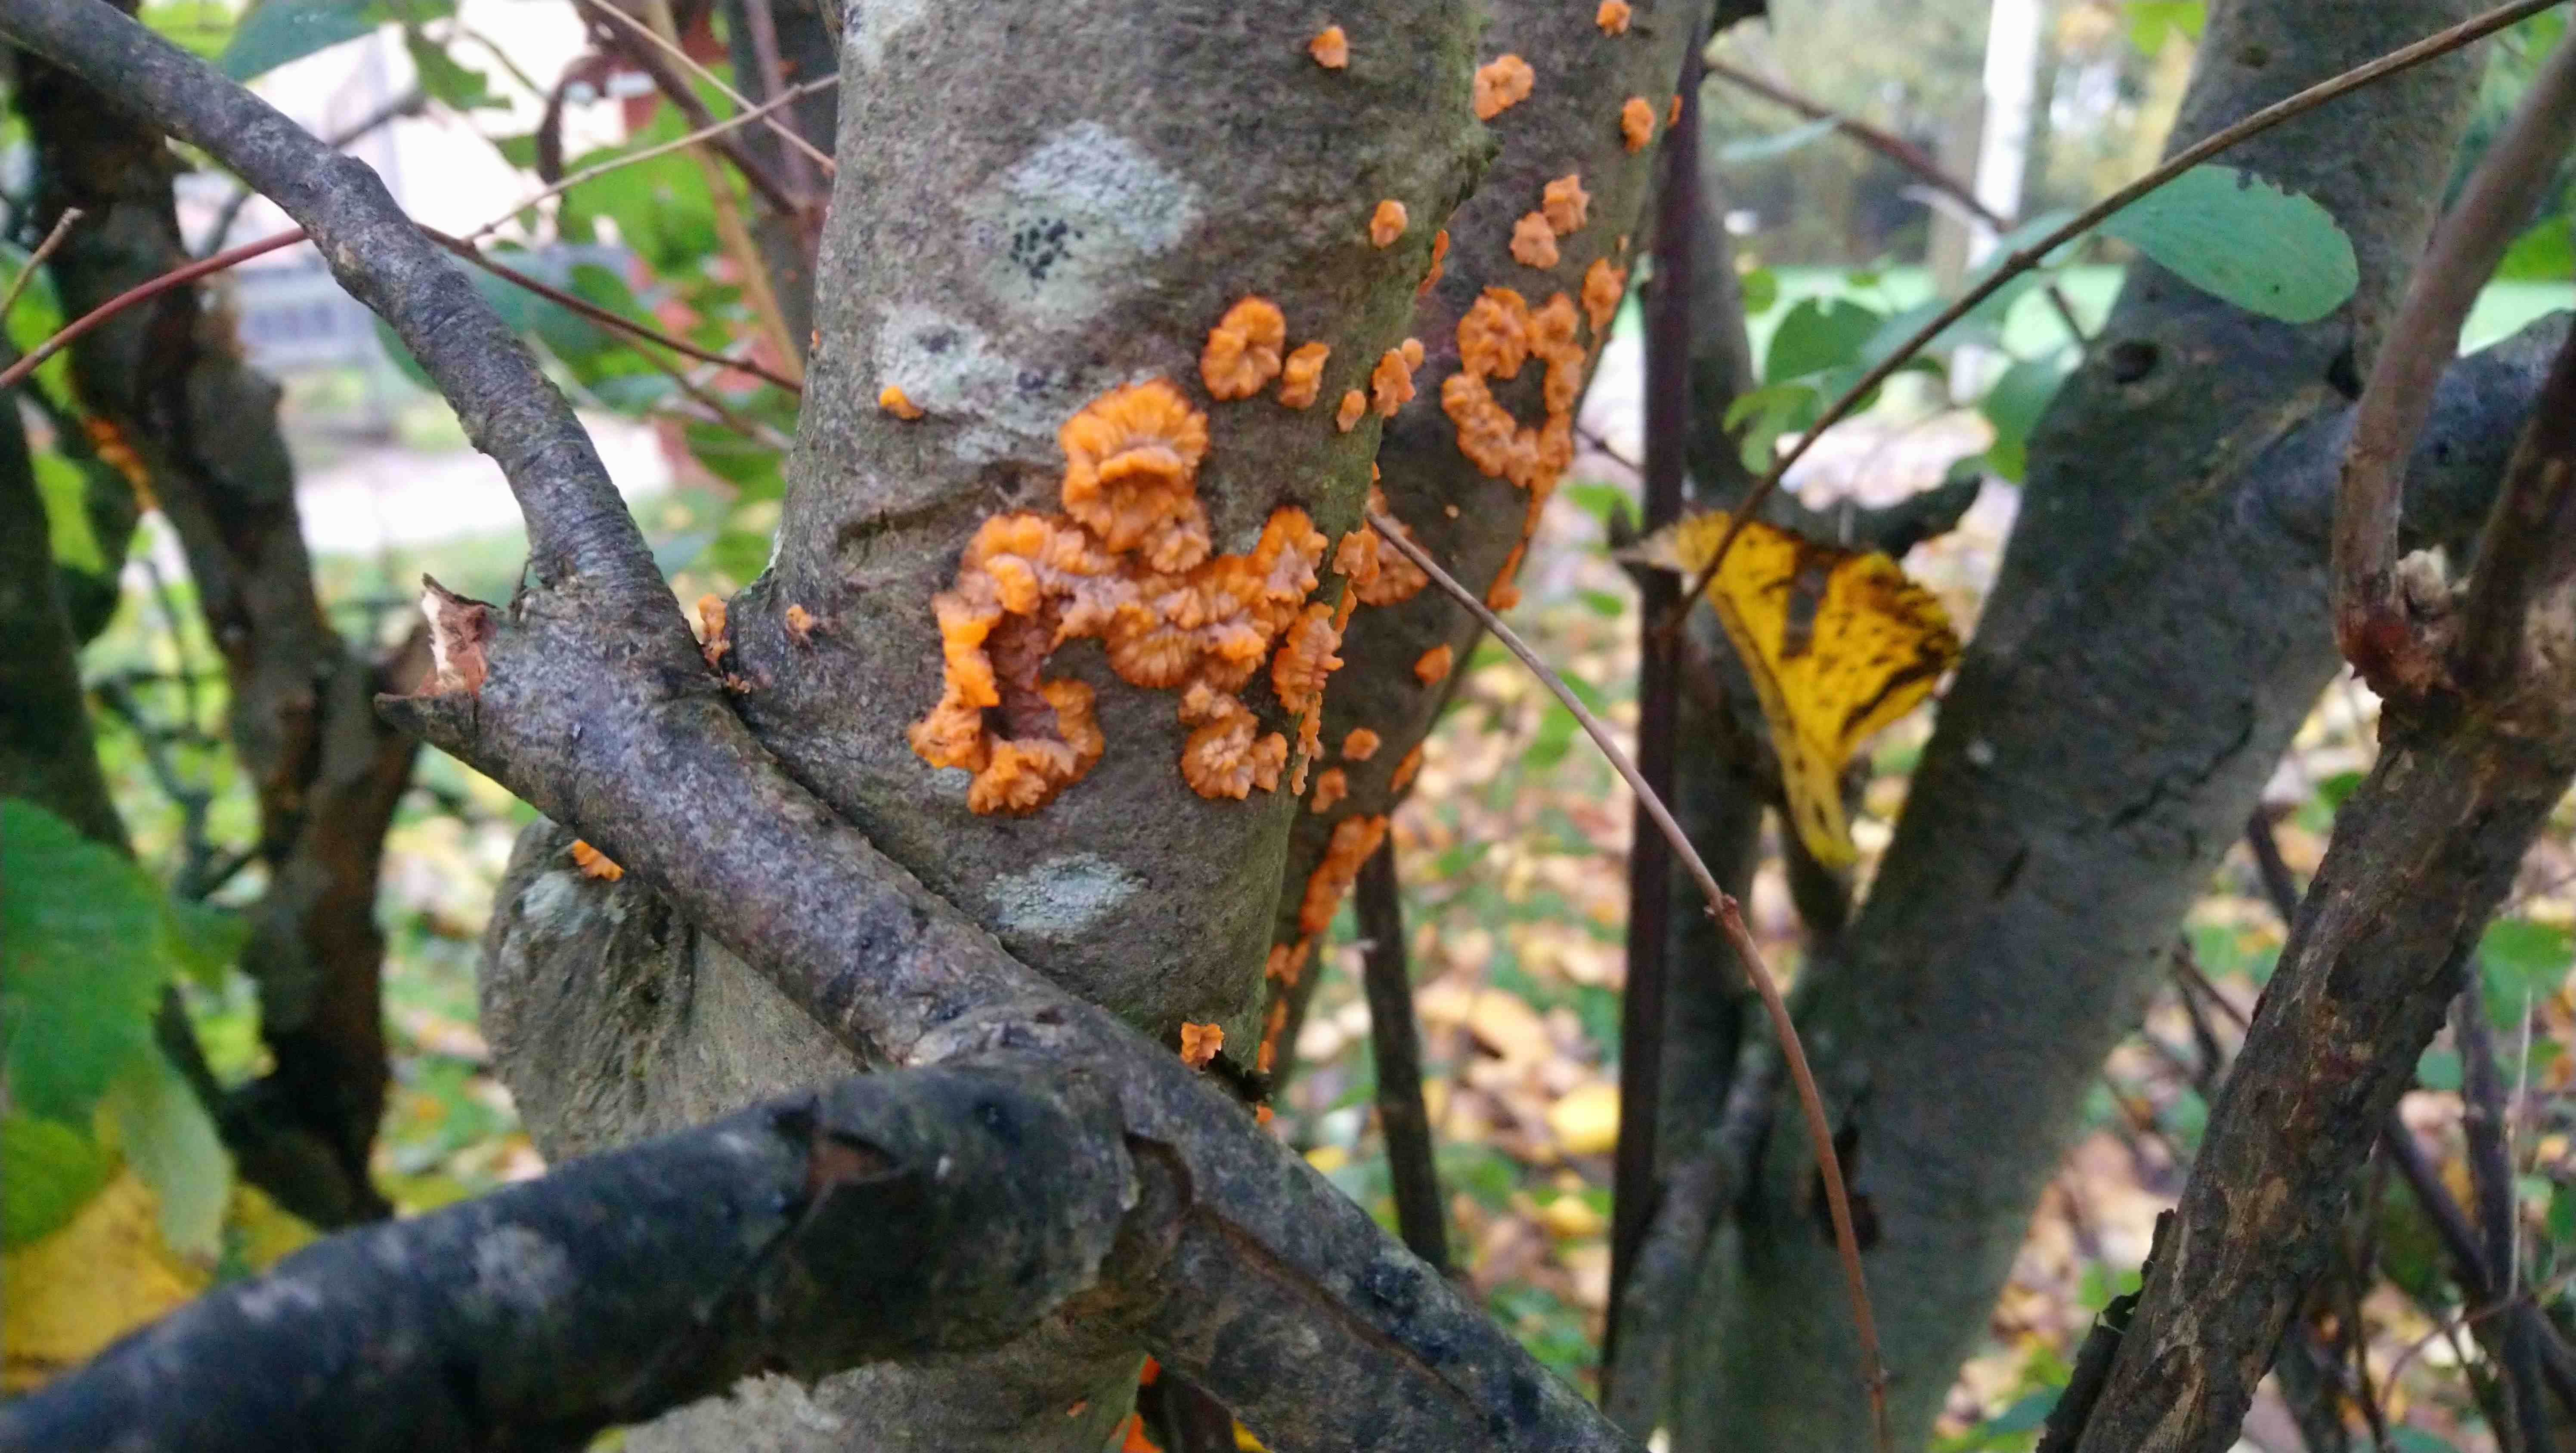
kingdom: Fungi
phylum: Basidiomycota
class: Agaricomycetes
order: Polyporales
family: Meruliaceae
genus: Phlebia
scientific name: Phlebia radiata
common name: stråle-åresvamp
